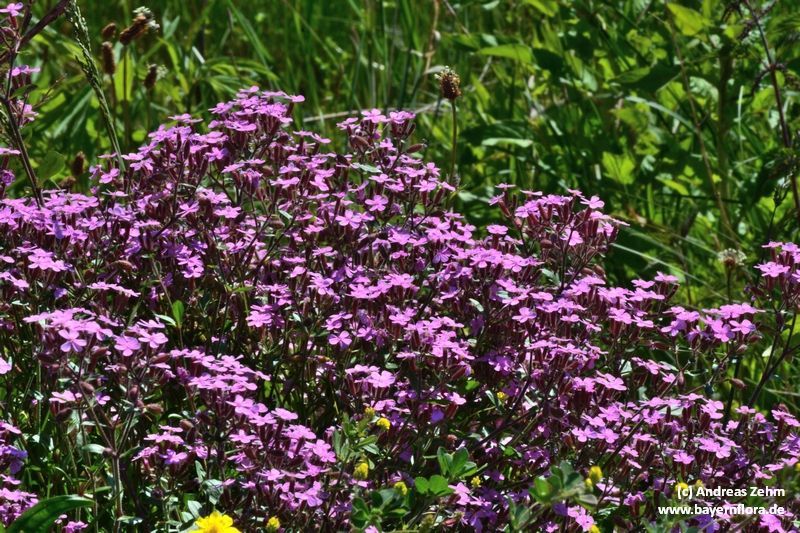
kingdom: Plantae
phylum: Tracheophyta
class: Magnoliopsida
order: Caryophyllales
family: Caryophyllaceae
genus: Saponaria
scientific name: Saponaria ocymoides
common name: Rock soapwort
